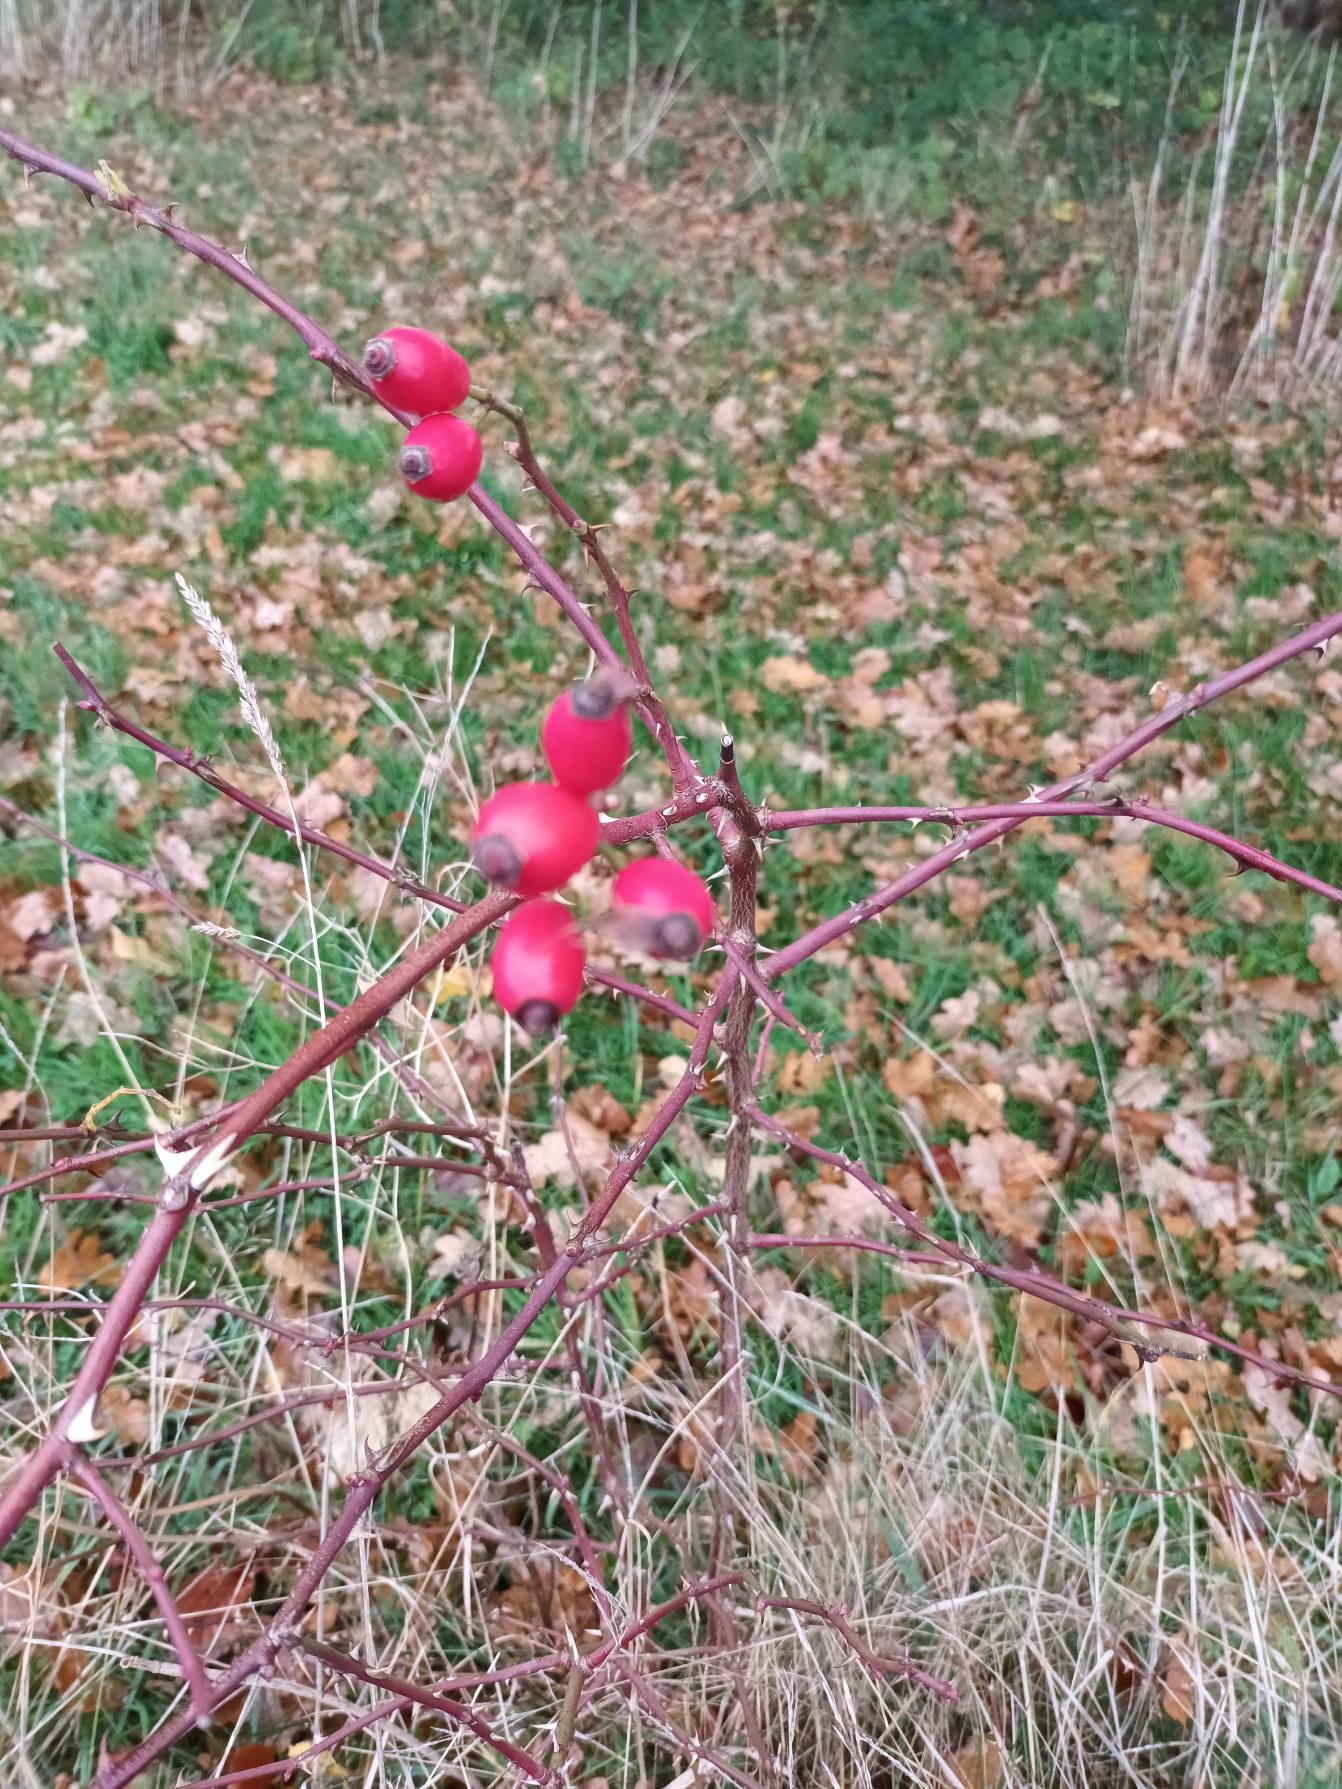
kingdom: Plantae
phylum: Tracheophyta
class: Magnoliopsida
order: Rosales
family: Rosaceae
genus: Rosa
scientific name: Rosa canina
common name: Glat hunde-rose
